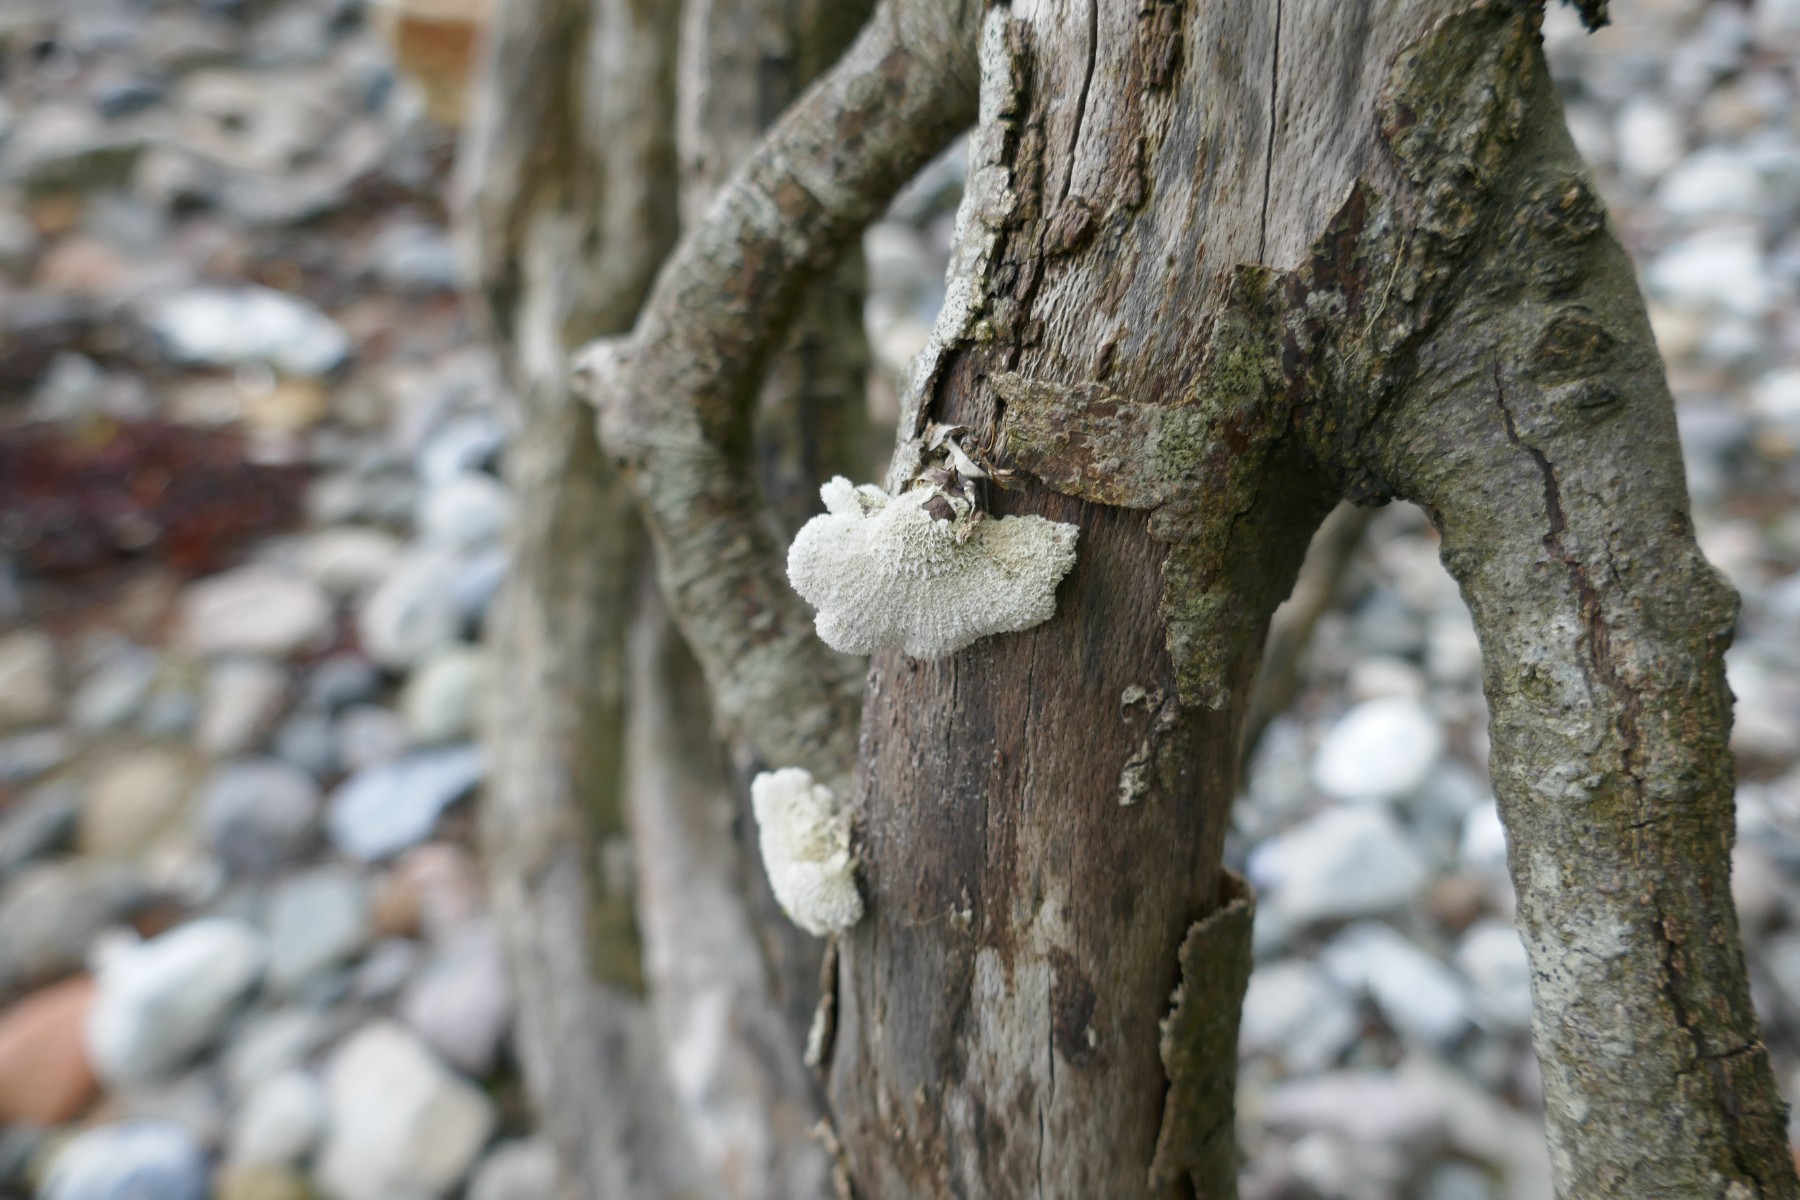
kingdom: Fungi
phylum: Basidiomycota
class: Agaricomycetes
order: Agaricales
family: Schizophyllaceae
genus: Schizophyllum
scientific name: Schizophyllum commune
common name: kløvblad
